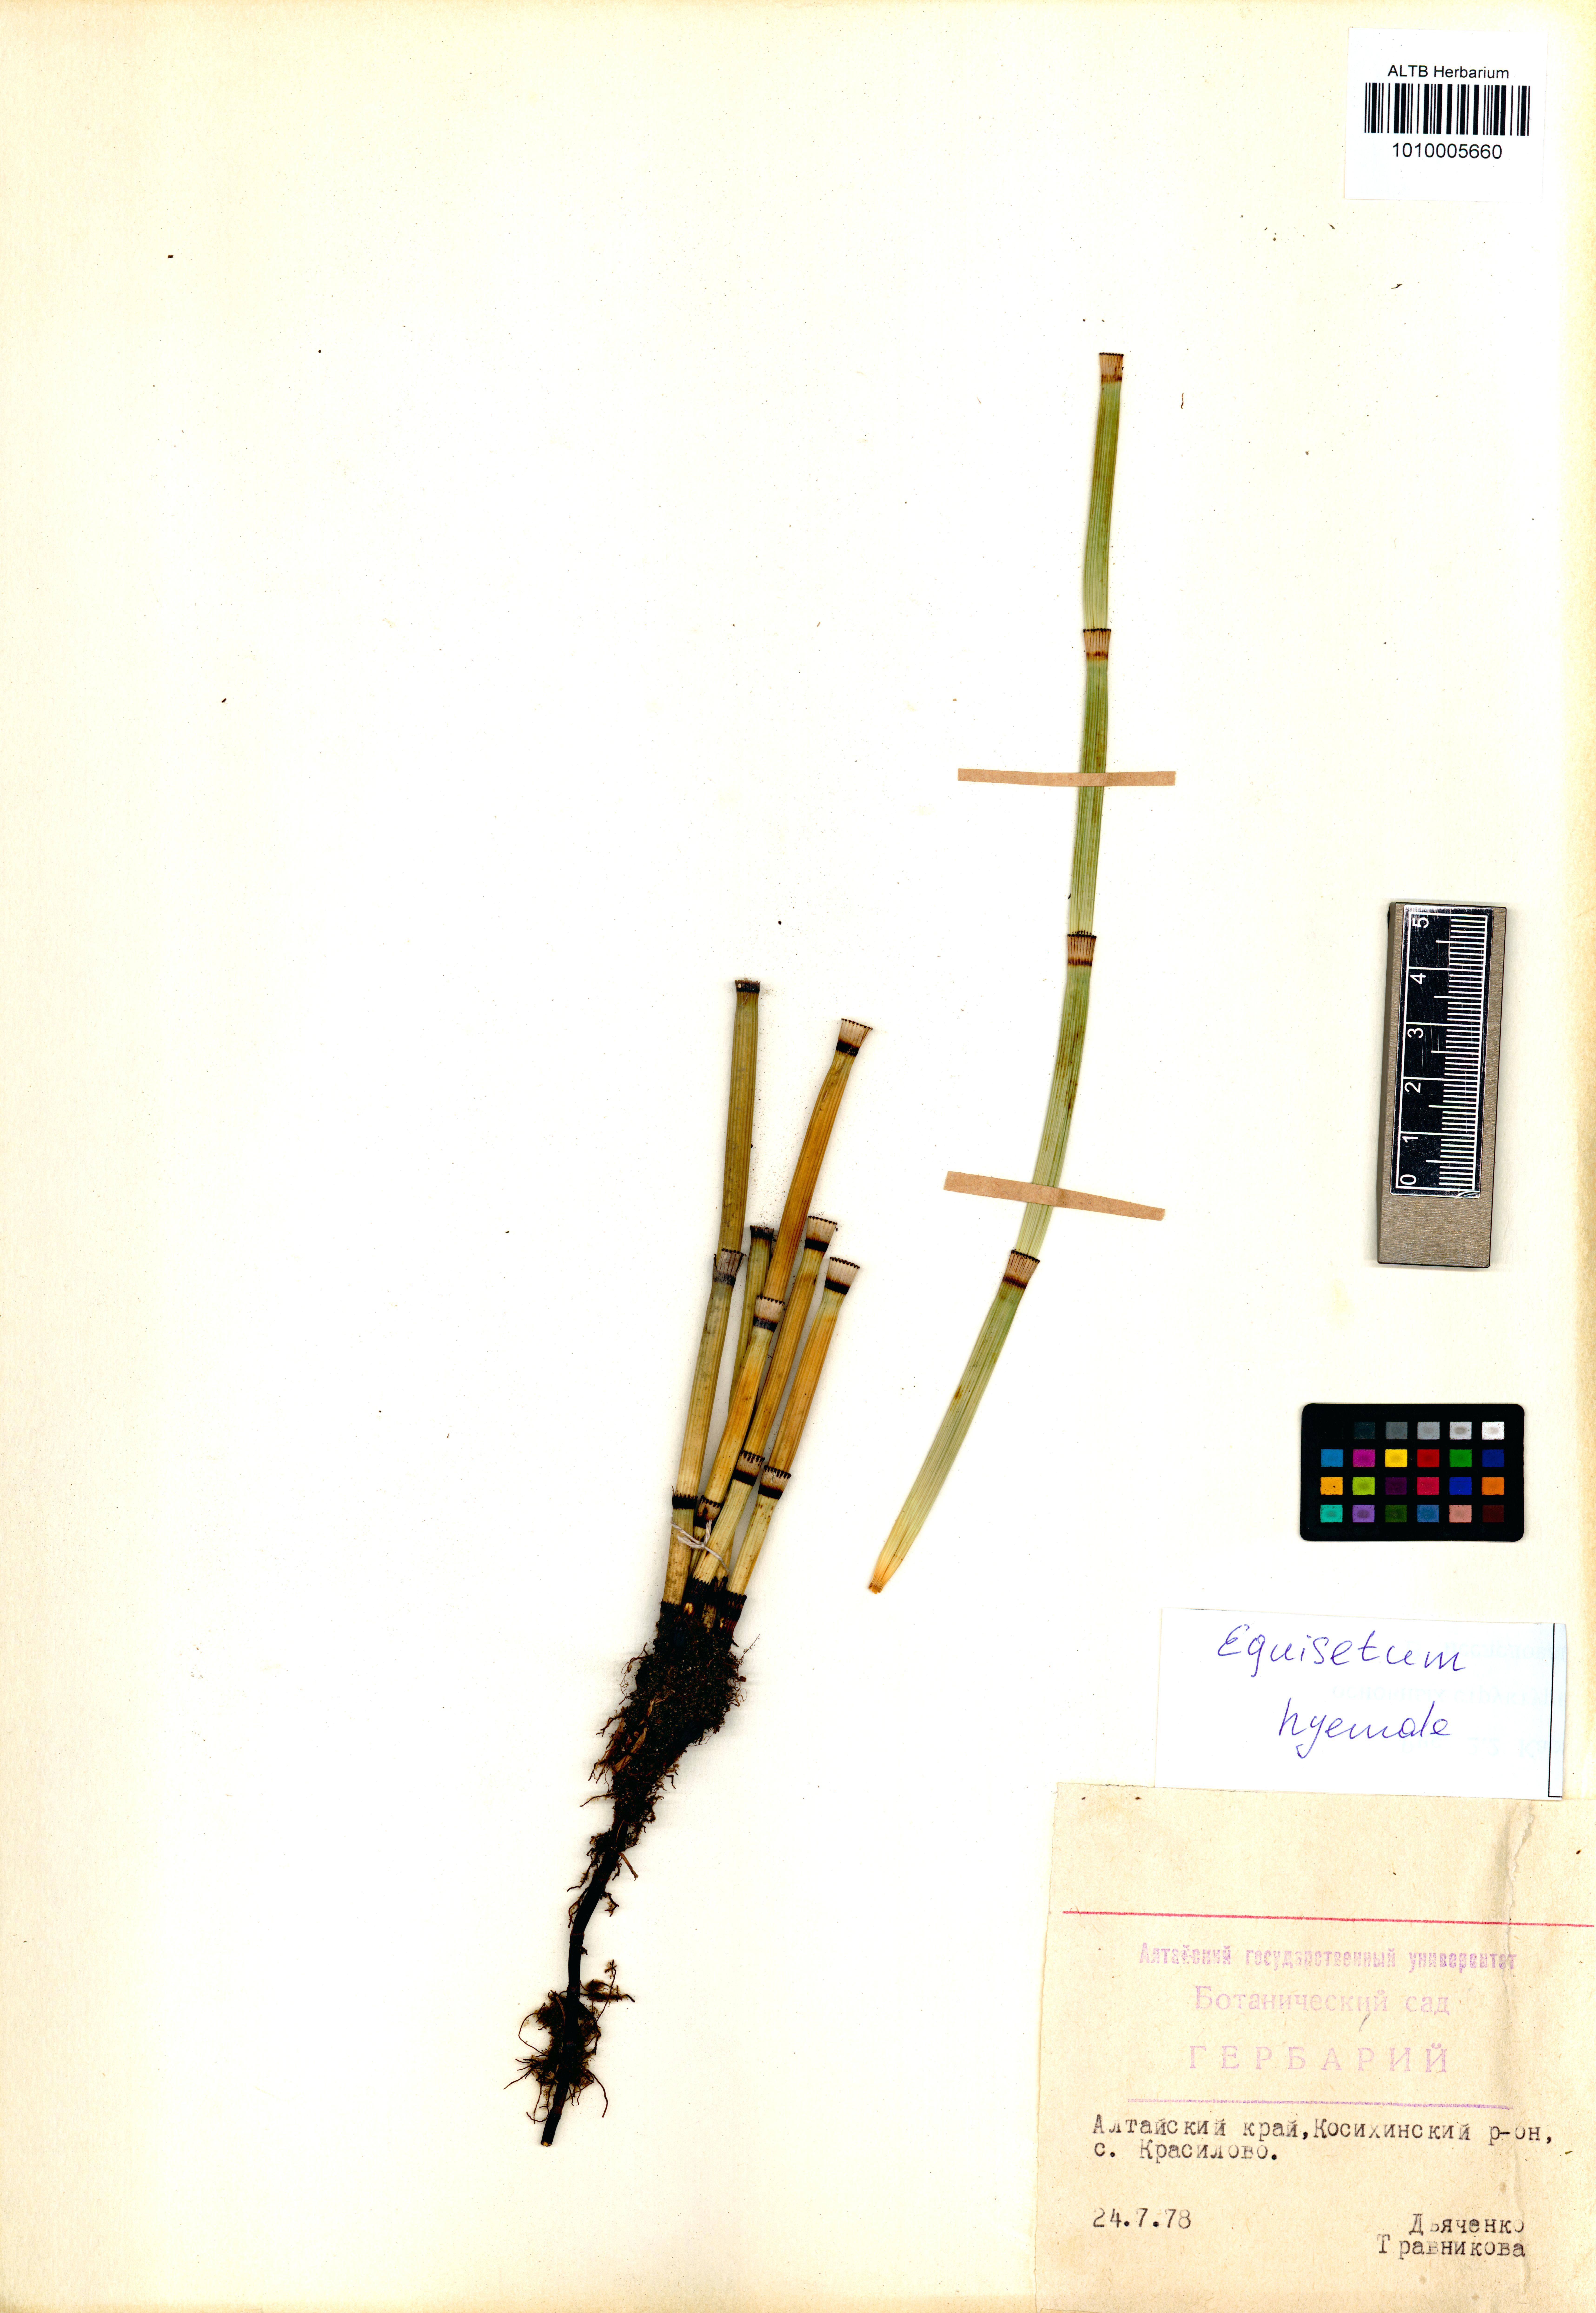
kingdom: Plantae
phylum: Tracheophyta
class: Polypodiopsida
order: Equisetales
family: Equisetaceae
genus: Equisetum
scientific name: Equisetum hyemale
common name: Rough horsetail
